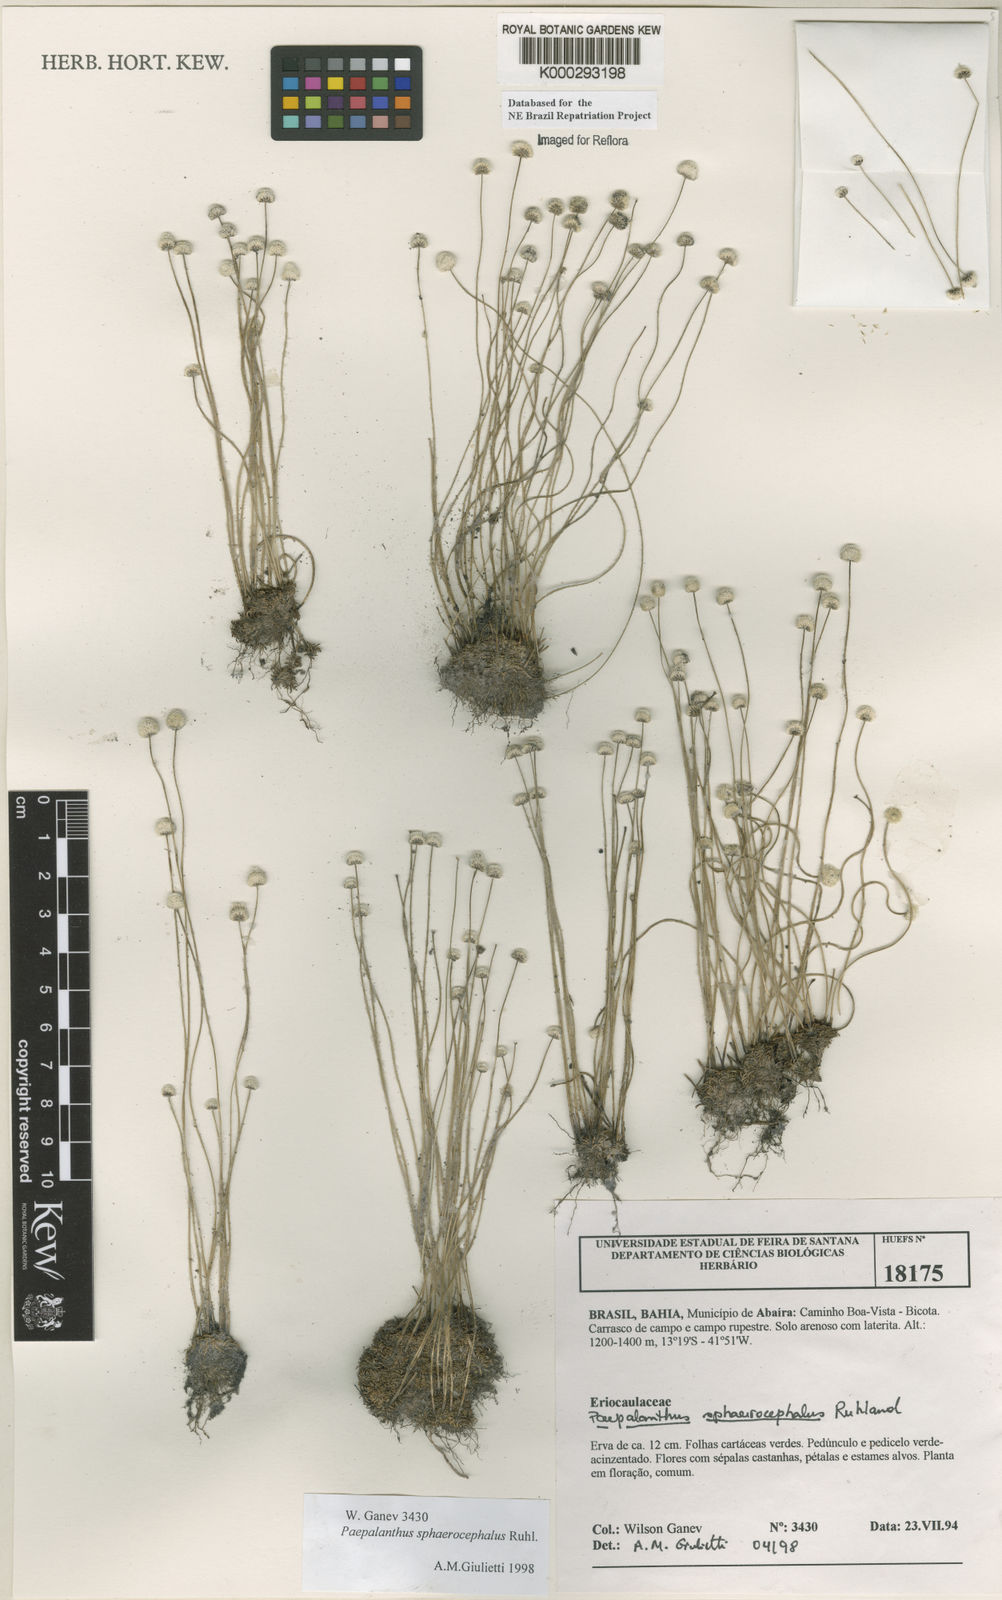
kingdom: Plantae
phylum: Tracheophyta
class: Liliopsida
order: Poales
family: Eriocaulaceae
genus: Paepalanthus
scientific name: Paepalanthus sphaerocephalus
